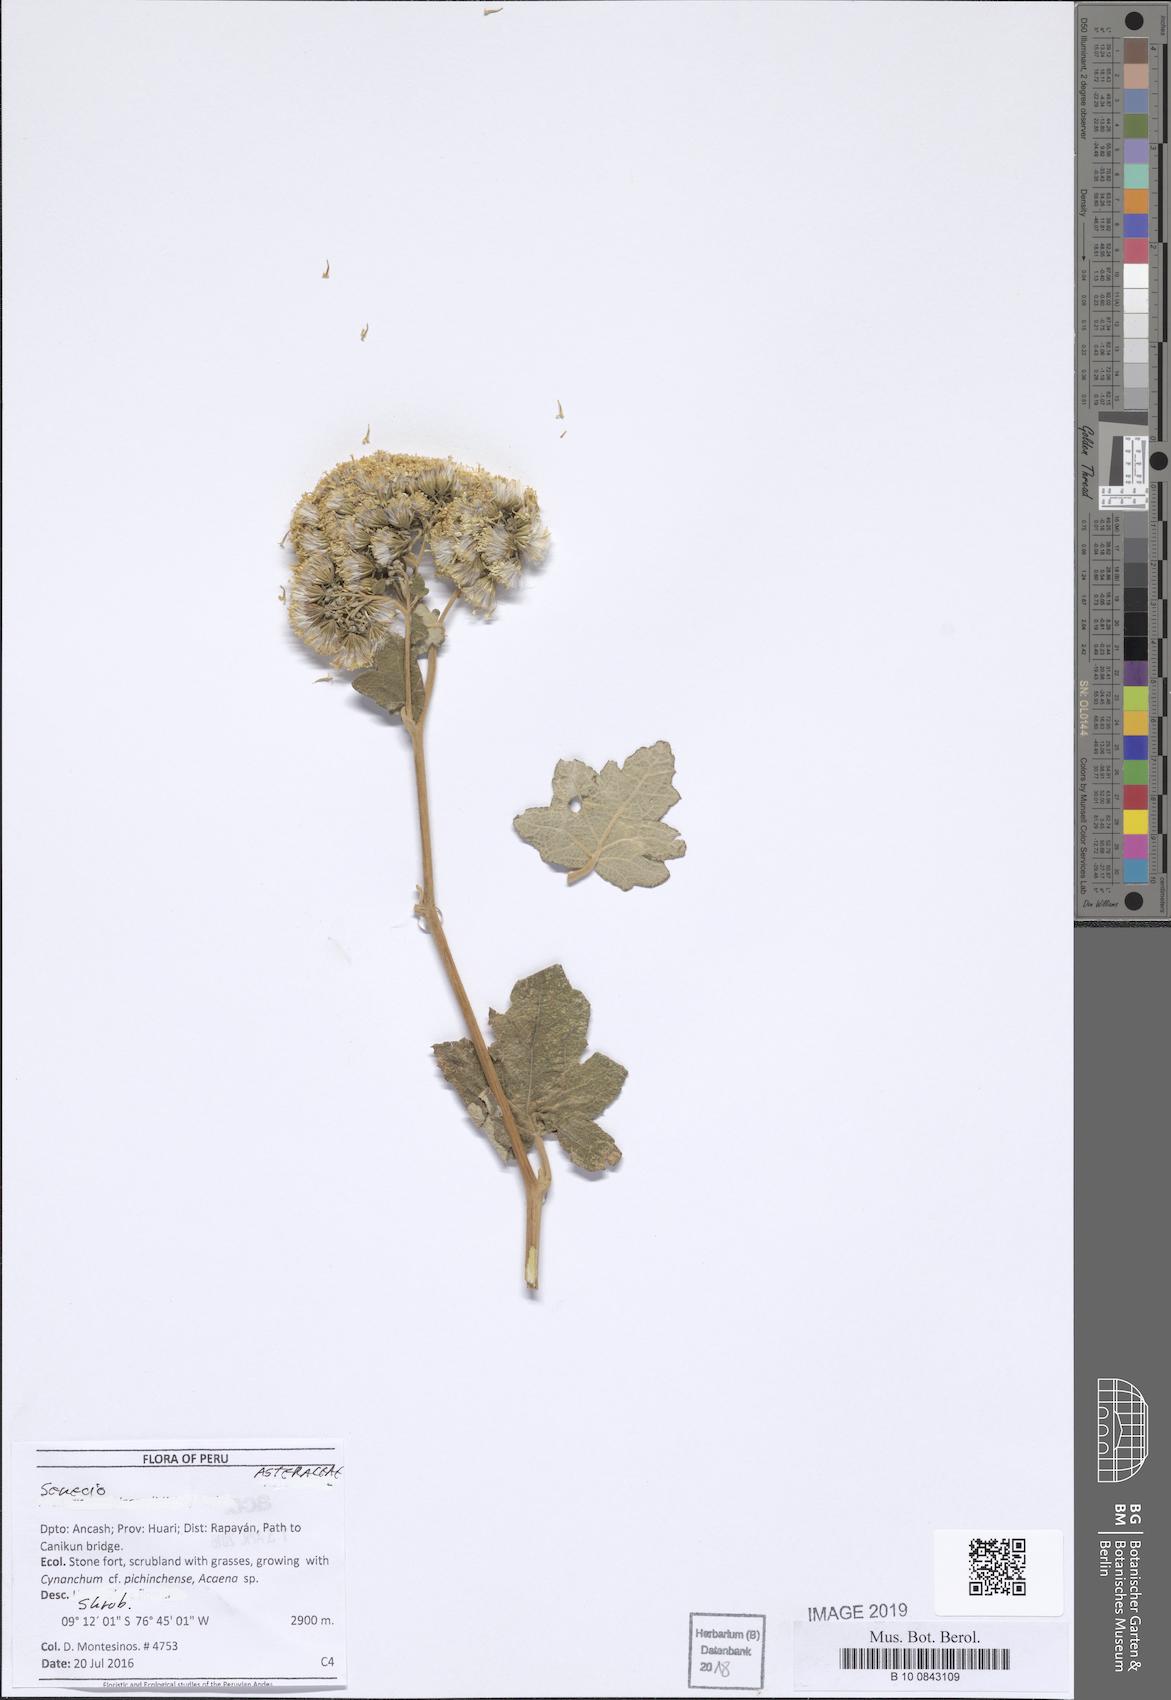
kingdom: Plantae
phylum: Tracheophyta
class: Magnoliopsida
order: Asterales
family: Asteraceae
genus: Jungia
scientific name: Jungia schuerae
